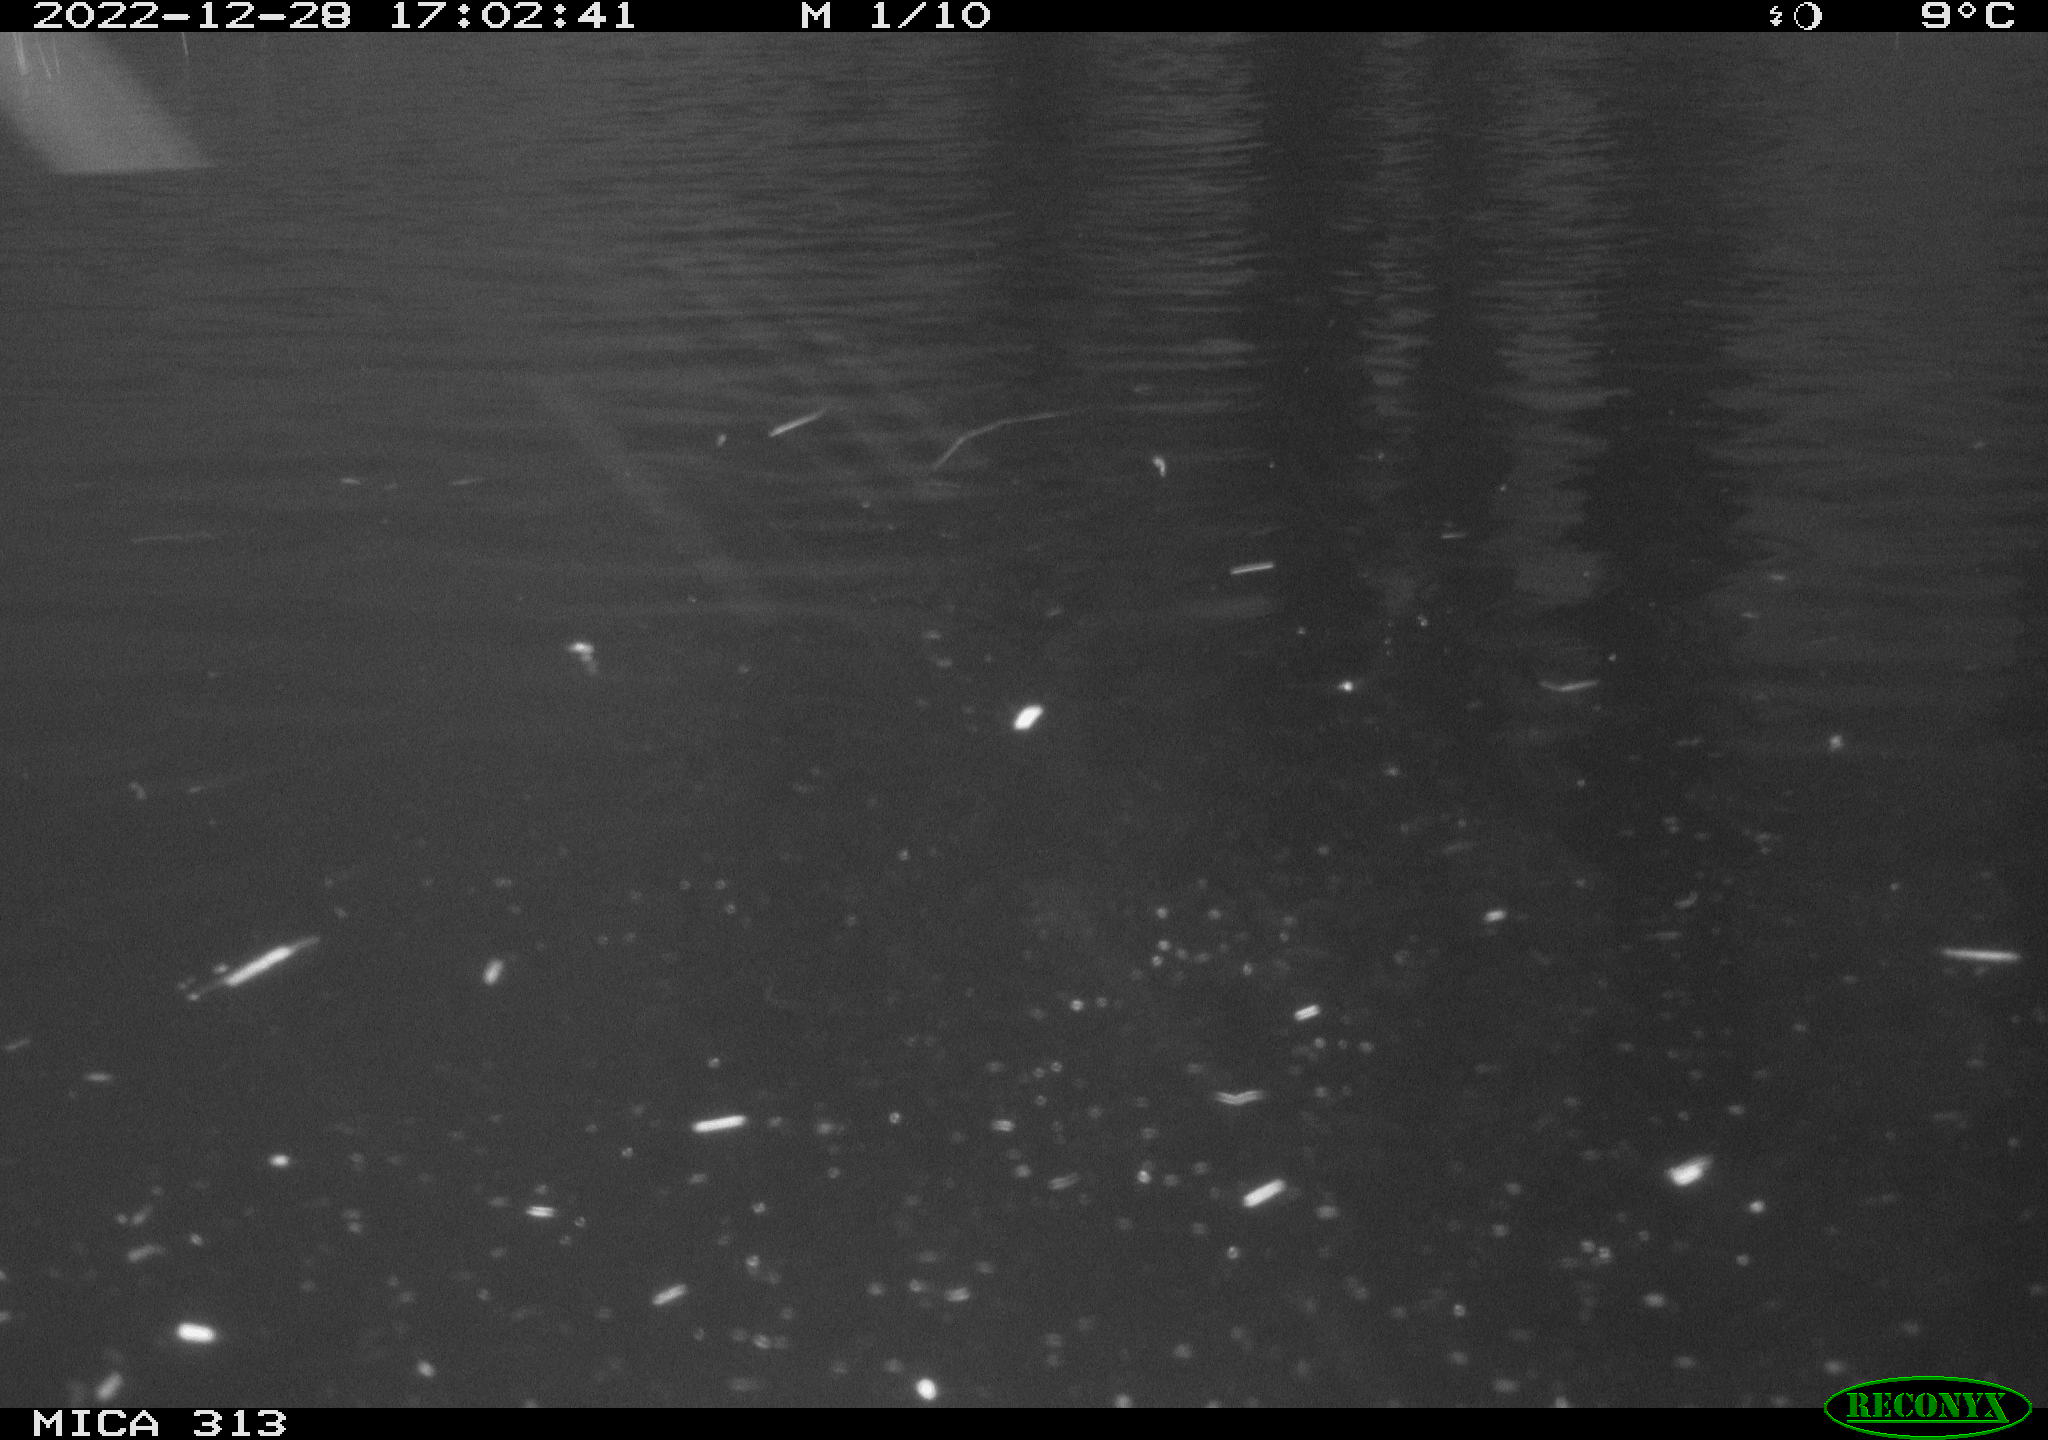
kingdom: Animalia
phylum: Chordata
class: Mammalia
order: Rodentia
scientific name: Rodentia
